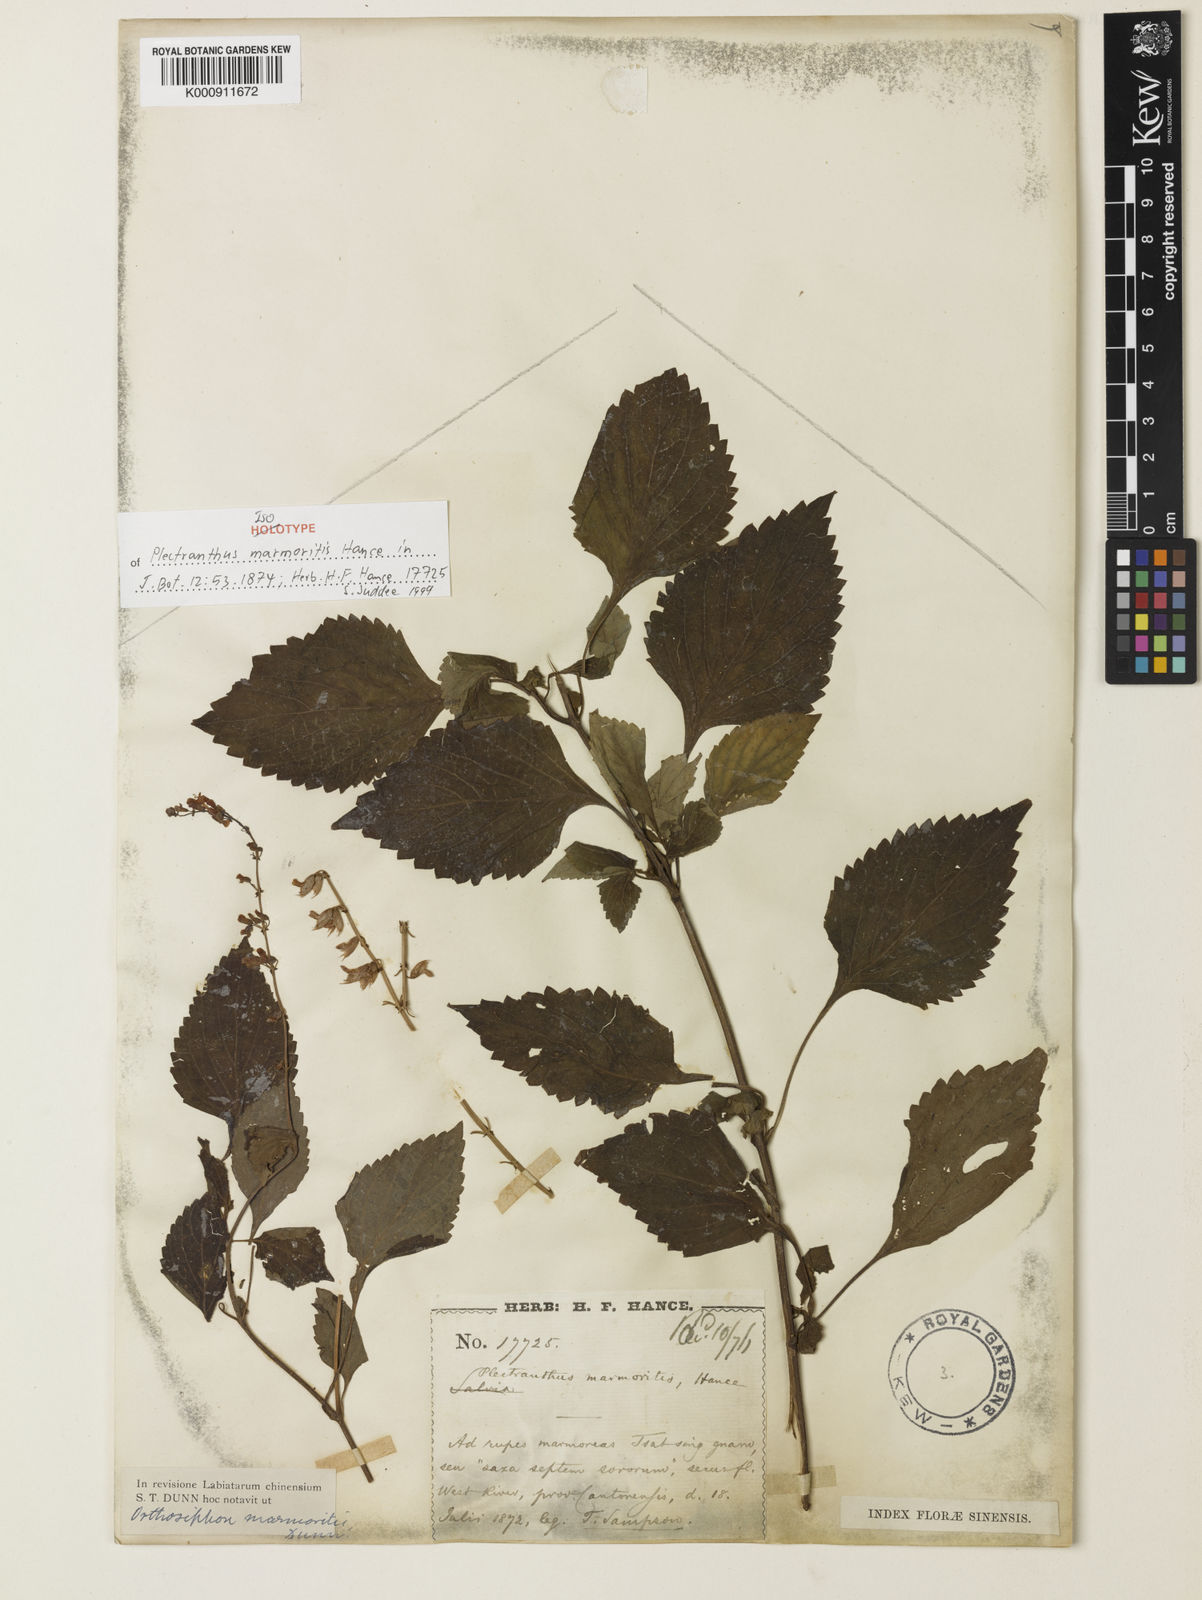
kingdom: Plantae
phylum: Tracheophyta
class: Magnoliopsida
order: Lamiales
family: Lamiaceae
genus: Orthosiphon
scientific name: Orthosiphon thymiflorus
